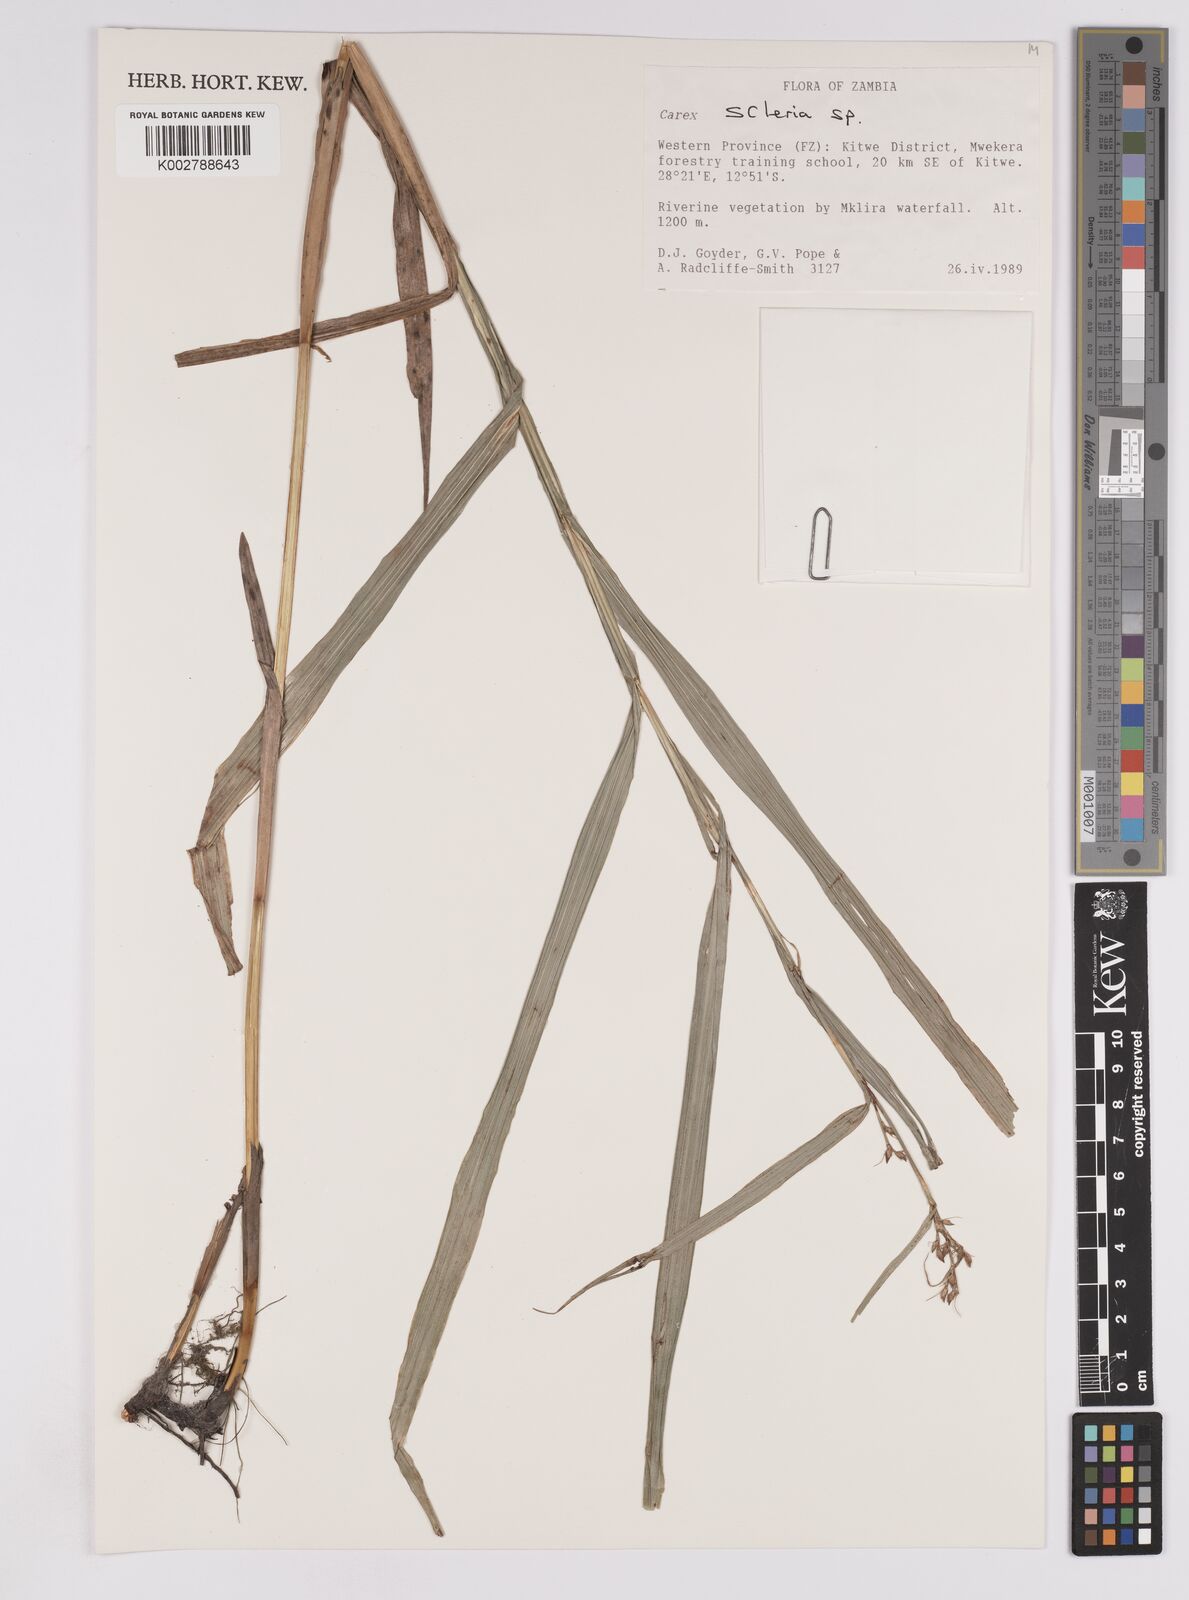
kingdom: Plantae
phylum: Tracheophyta
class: Liliopsida
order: Poales
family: Cyperaceae
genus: Scleria
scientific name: Scleria
